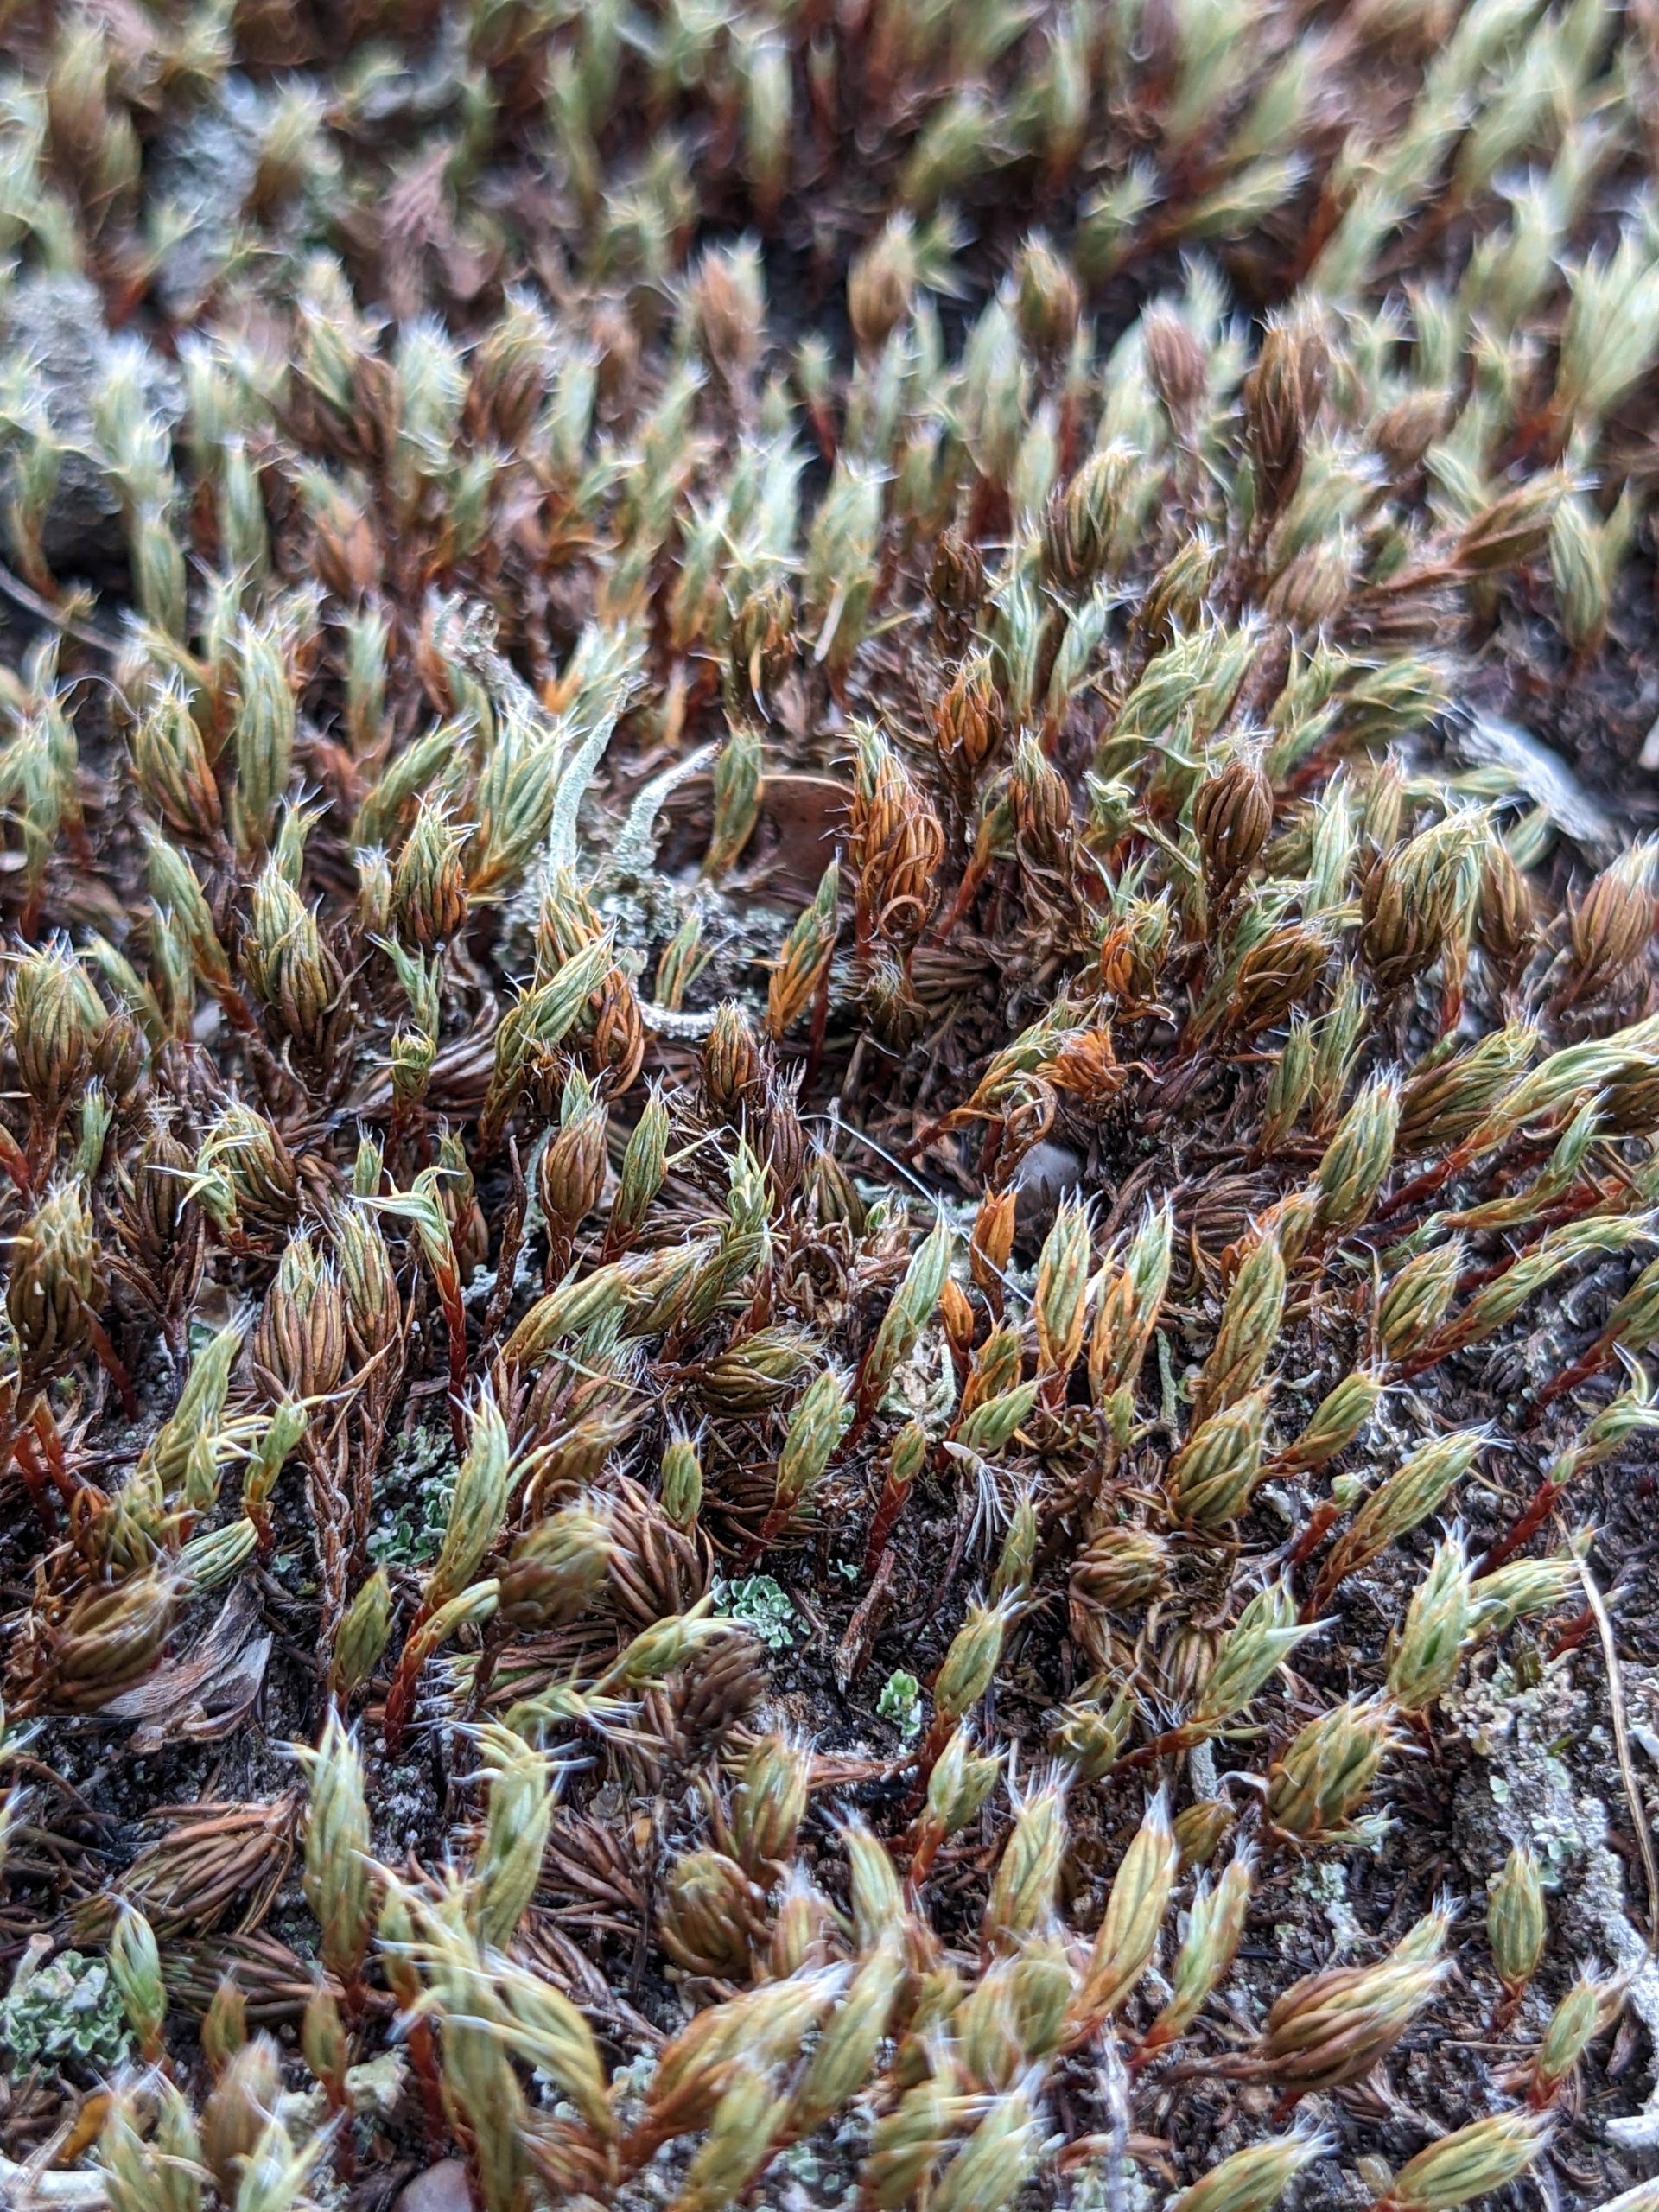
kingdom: Plantae
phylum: Bryophyta
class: Polytrichopsida
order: Polytrichales
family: Polytrichaceae
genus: Polytrichum
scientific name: Polytrichum piliferum
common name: Hårspidset jomfruhår
